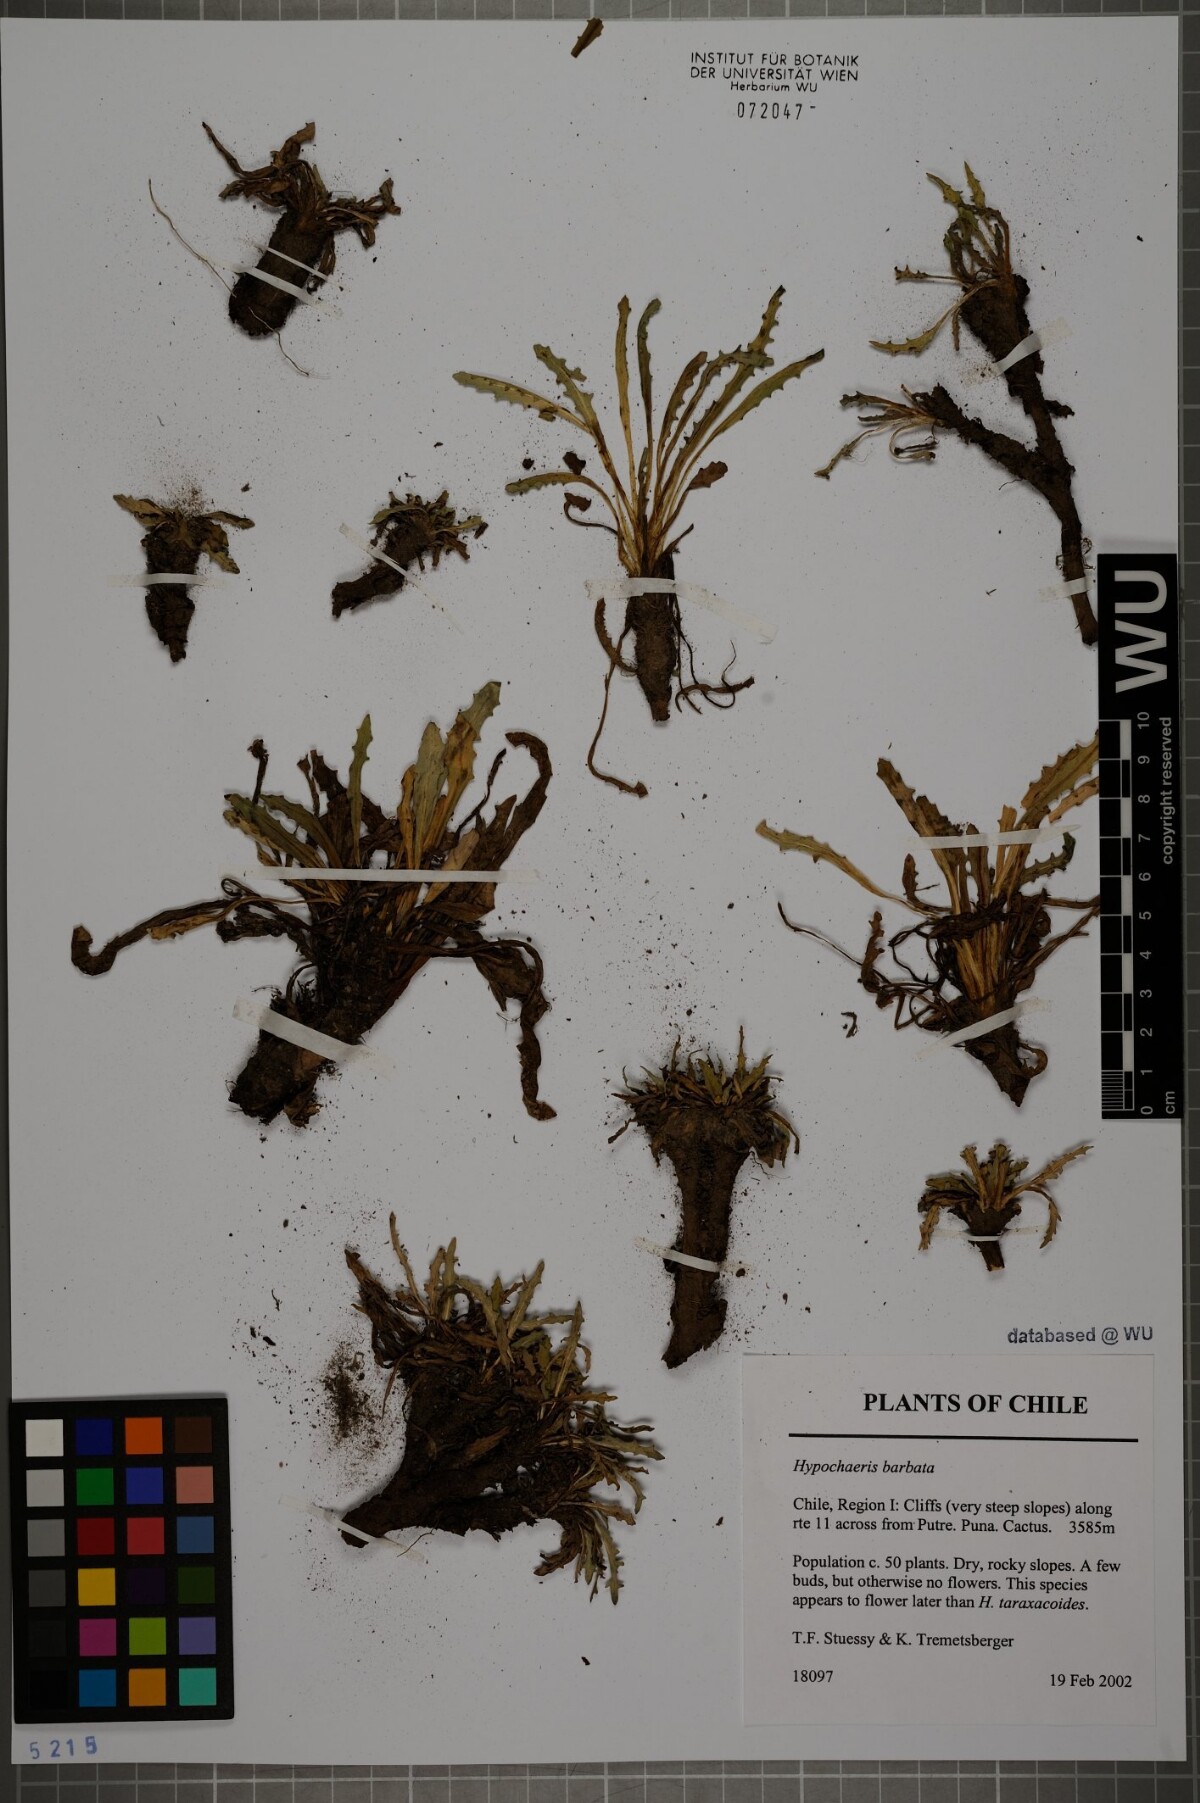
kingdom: Plantae
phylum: Tracheophyta
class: Magnoliopsida
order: Asterales
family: Asteraceae
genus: Hypochaeris
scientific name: Hypochaeris sessiliflora
